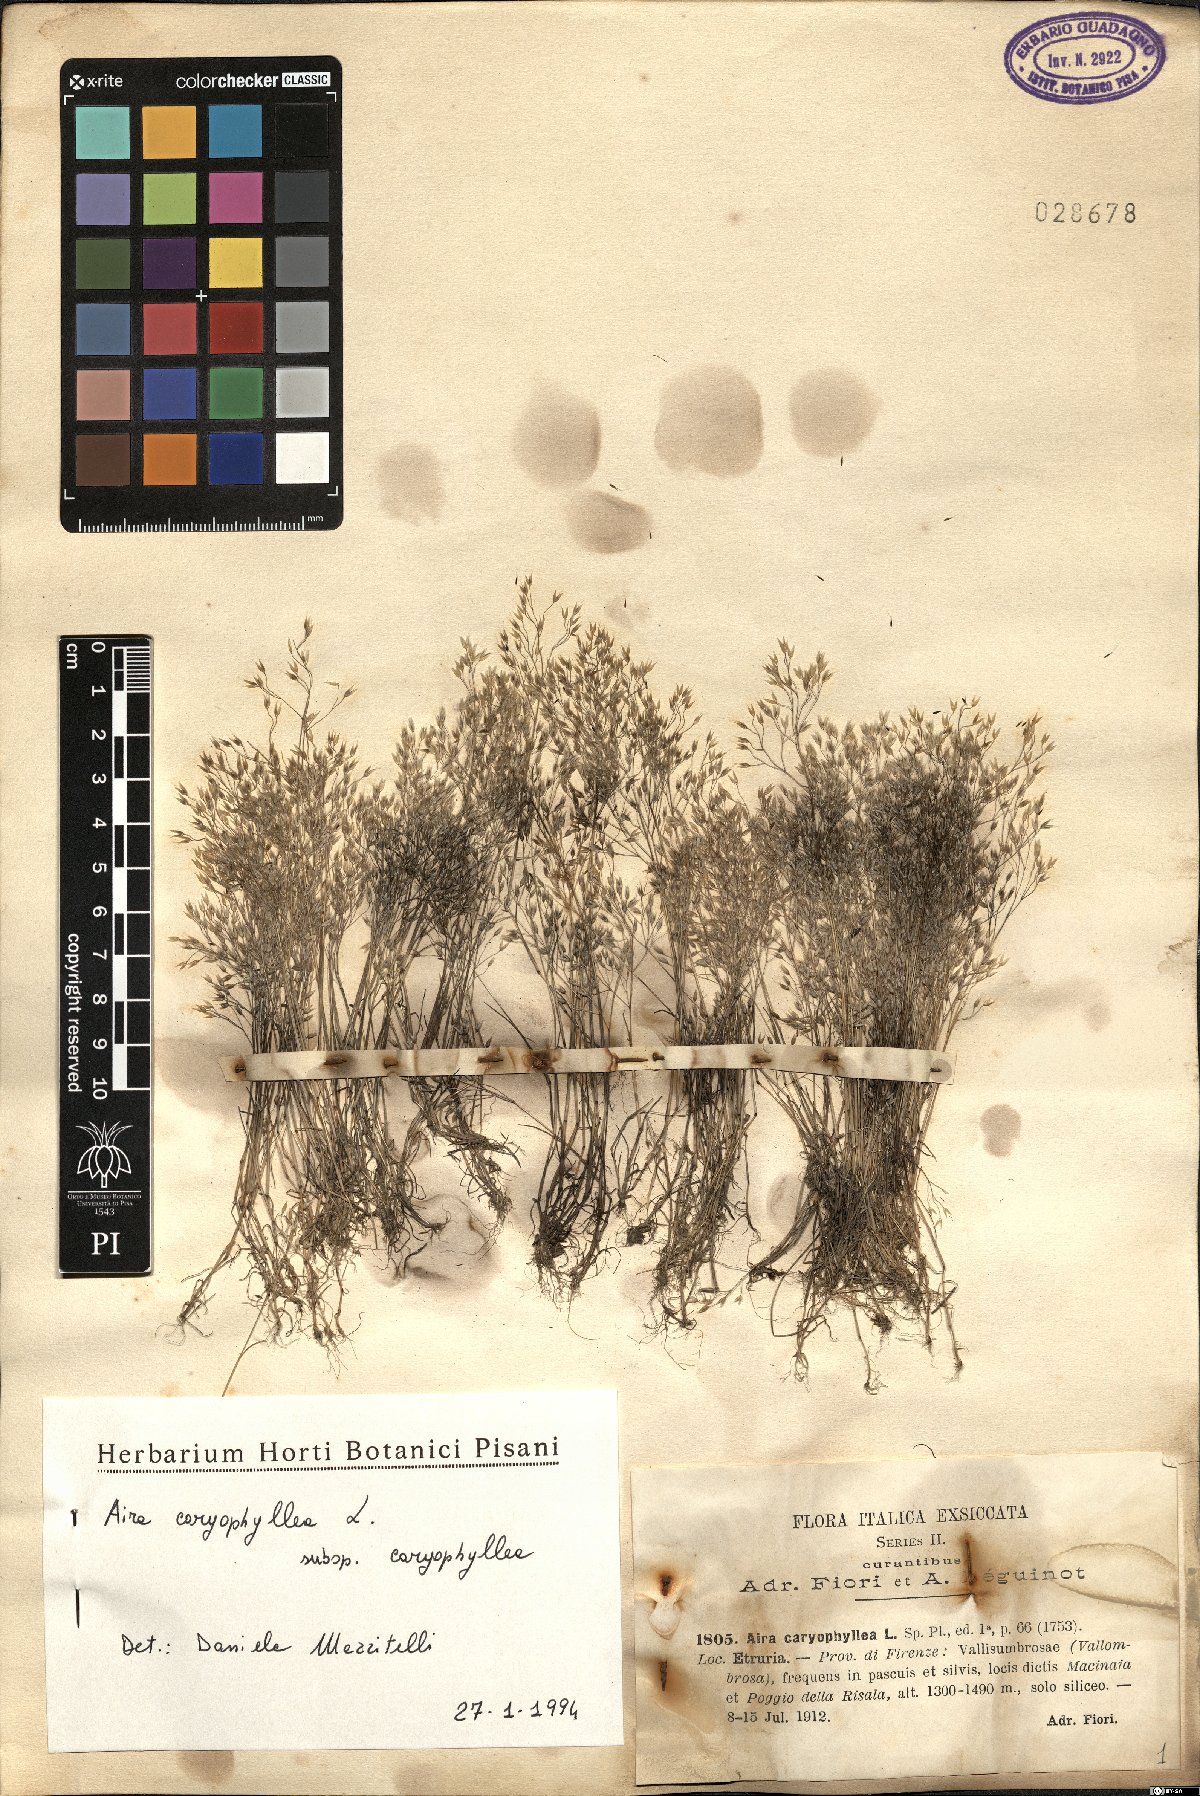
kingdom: Plantae
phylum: Tracheophyta
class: Liliopsida
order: Poales
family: Poaceae
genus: Aira
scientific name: Aira caryophyllea
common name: Silver hairgrass
